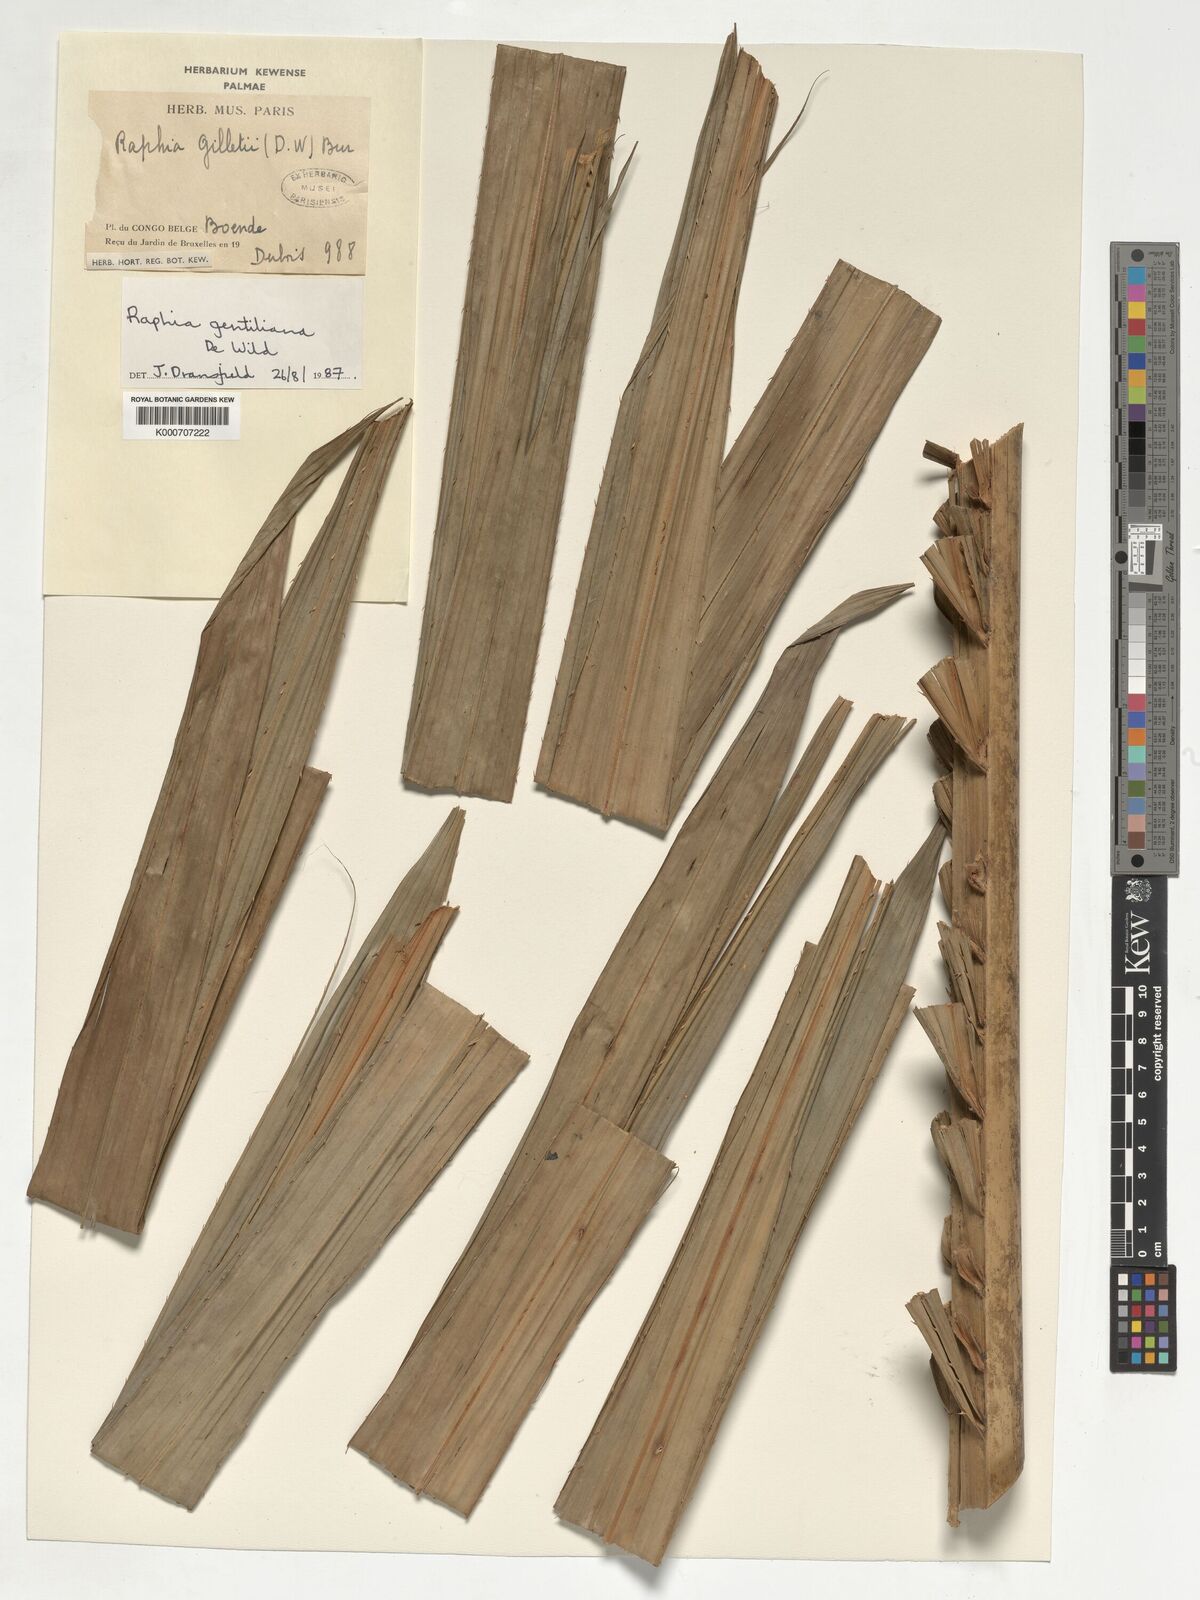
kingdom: Plantae
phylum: Tracheophyta
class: Liliopsida
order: Arecales
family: Arecaceae
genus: Raphia
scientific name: Raphia gentiliana
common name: Raphia palm
